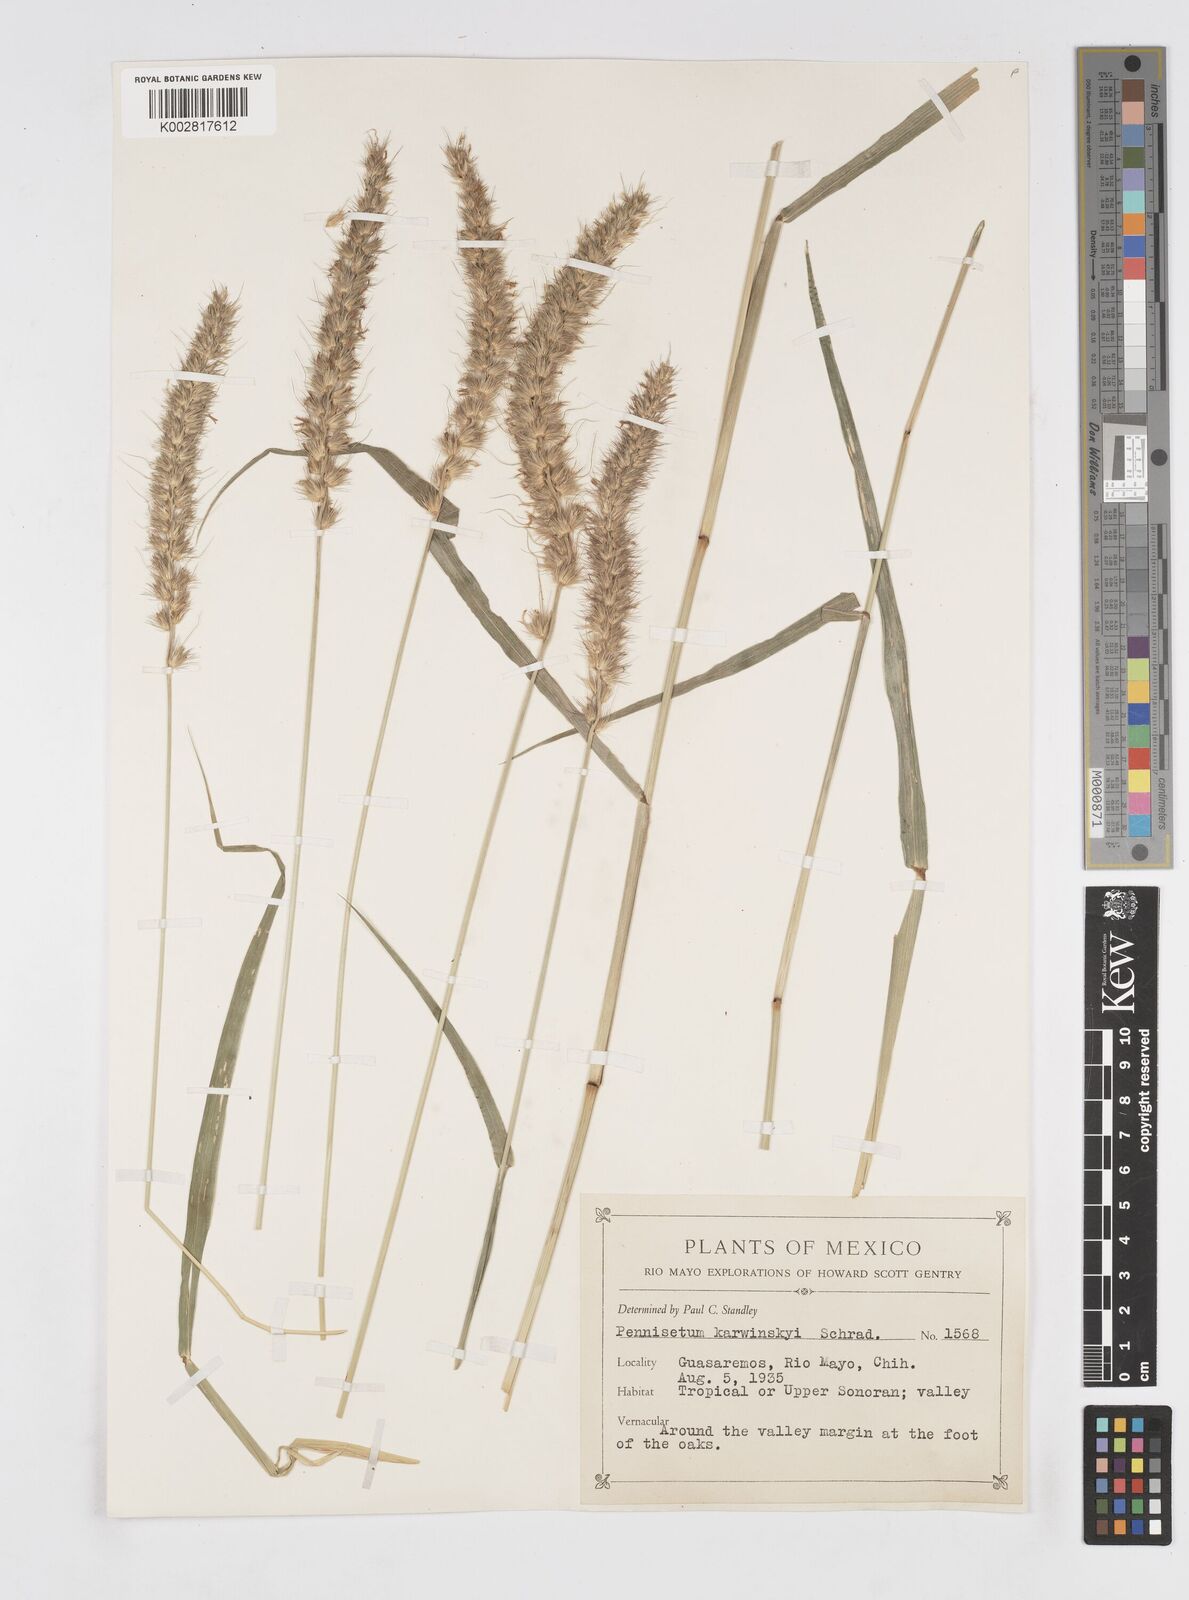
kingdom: Plantae
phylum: Tracheophyta
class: Liliopsida
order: Poales
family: Poaceae
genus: Cenchrus
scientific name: Cenchrus multiflorus
